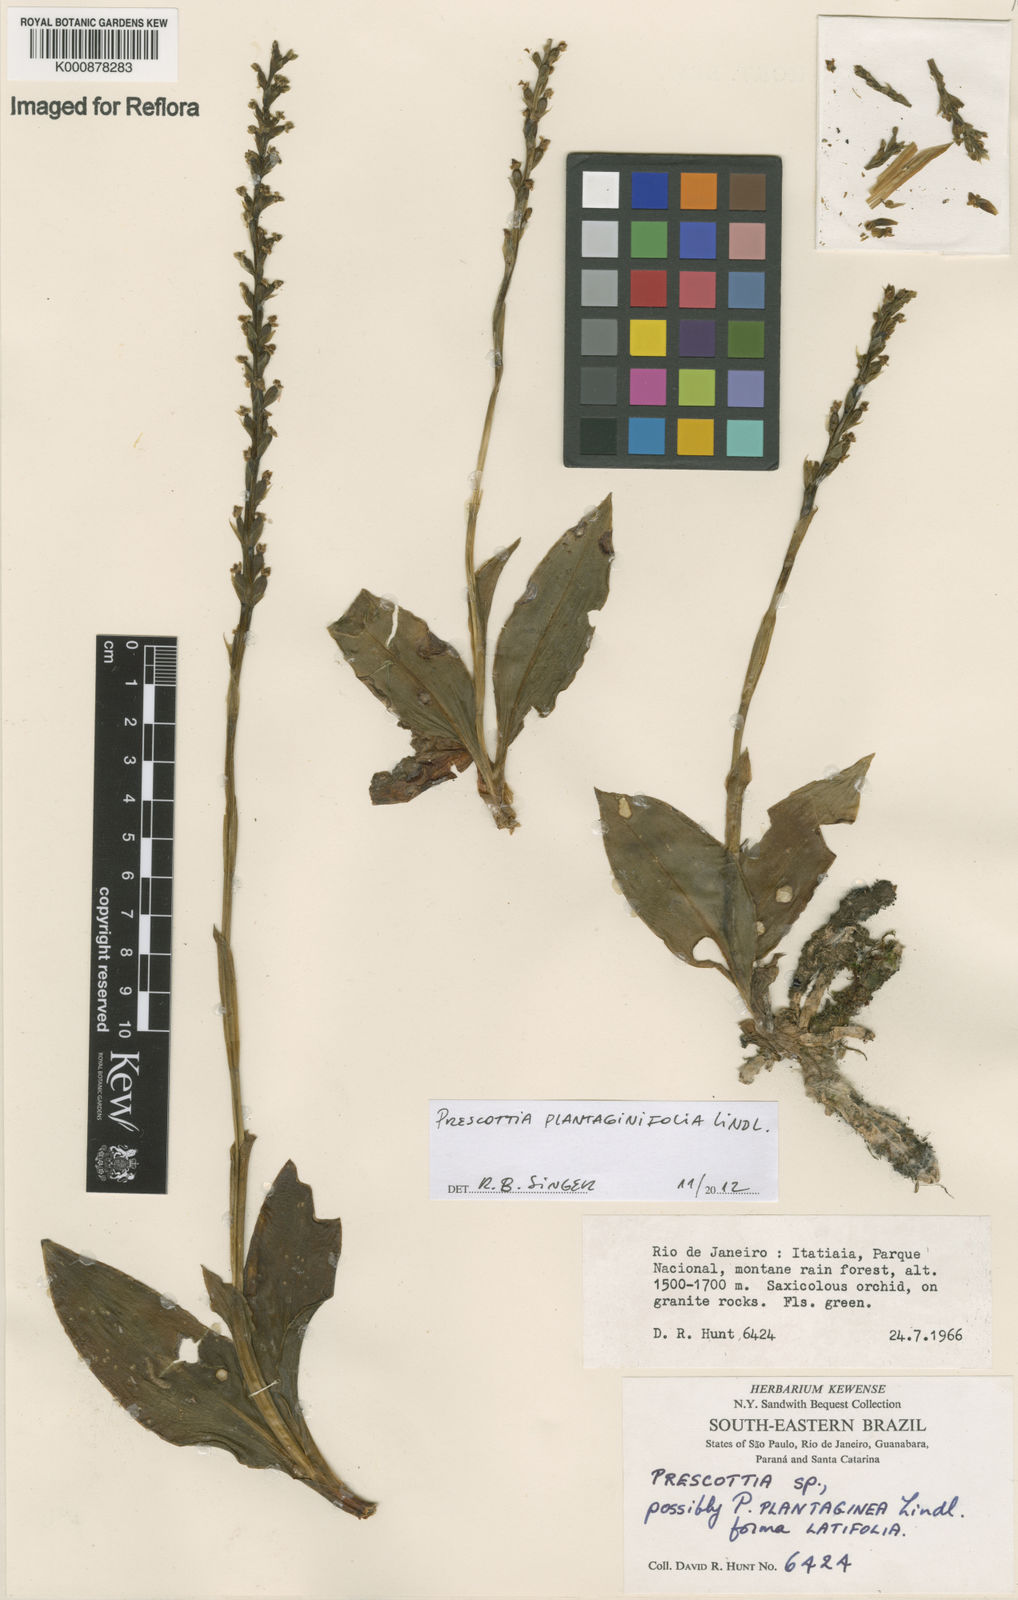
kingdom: Plantae
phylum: Tracheophyta
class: Liliopsida
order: Asparagales
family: Orchidaceae
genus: Prescottia
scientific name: Prescottia plantaginifolia
